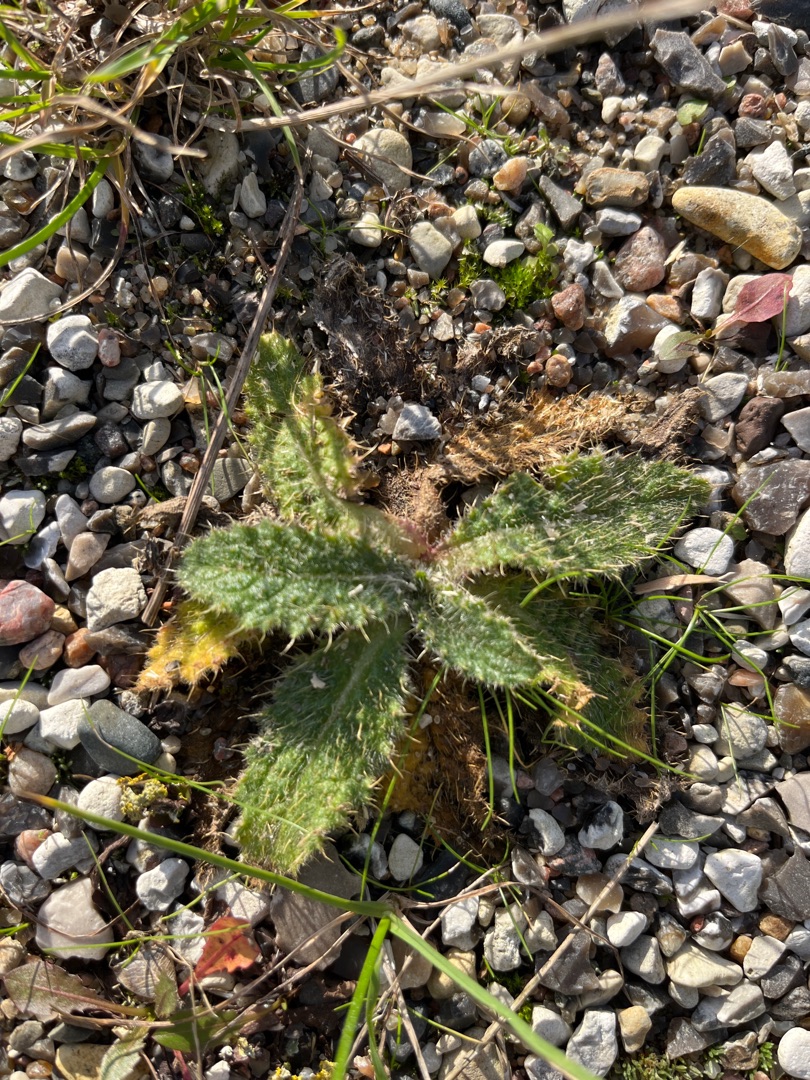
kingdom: Plantae
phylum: Tracheophyta
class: Magnoliopsida
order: Asterales
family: Asteraceae
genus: Cirsium
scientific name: Cirsium vulgare
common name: Horse-tidsel
